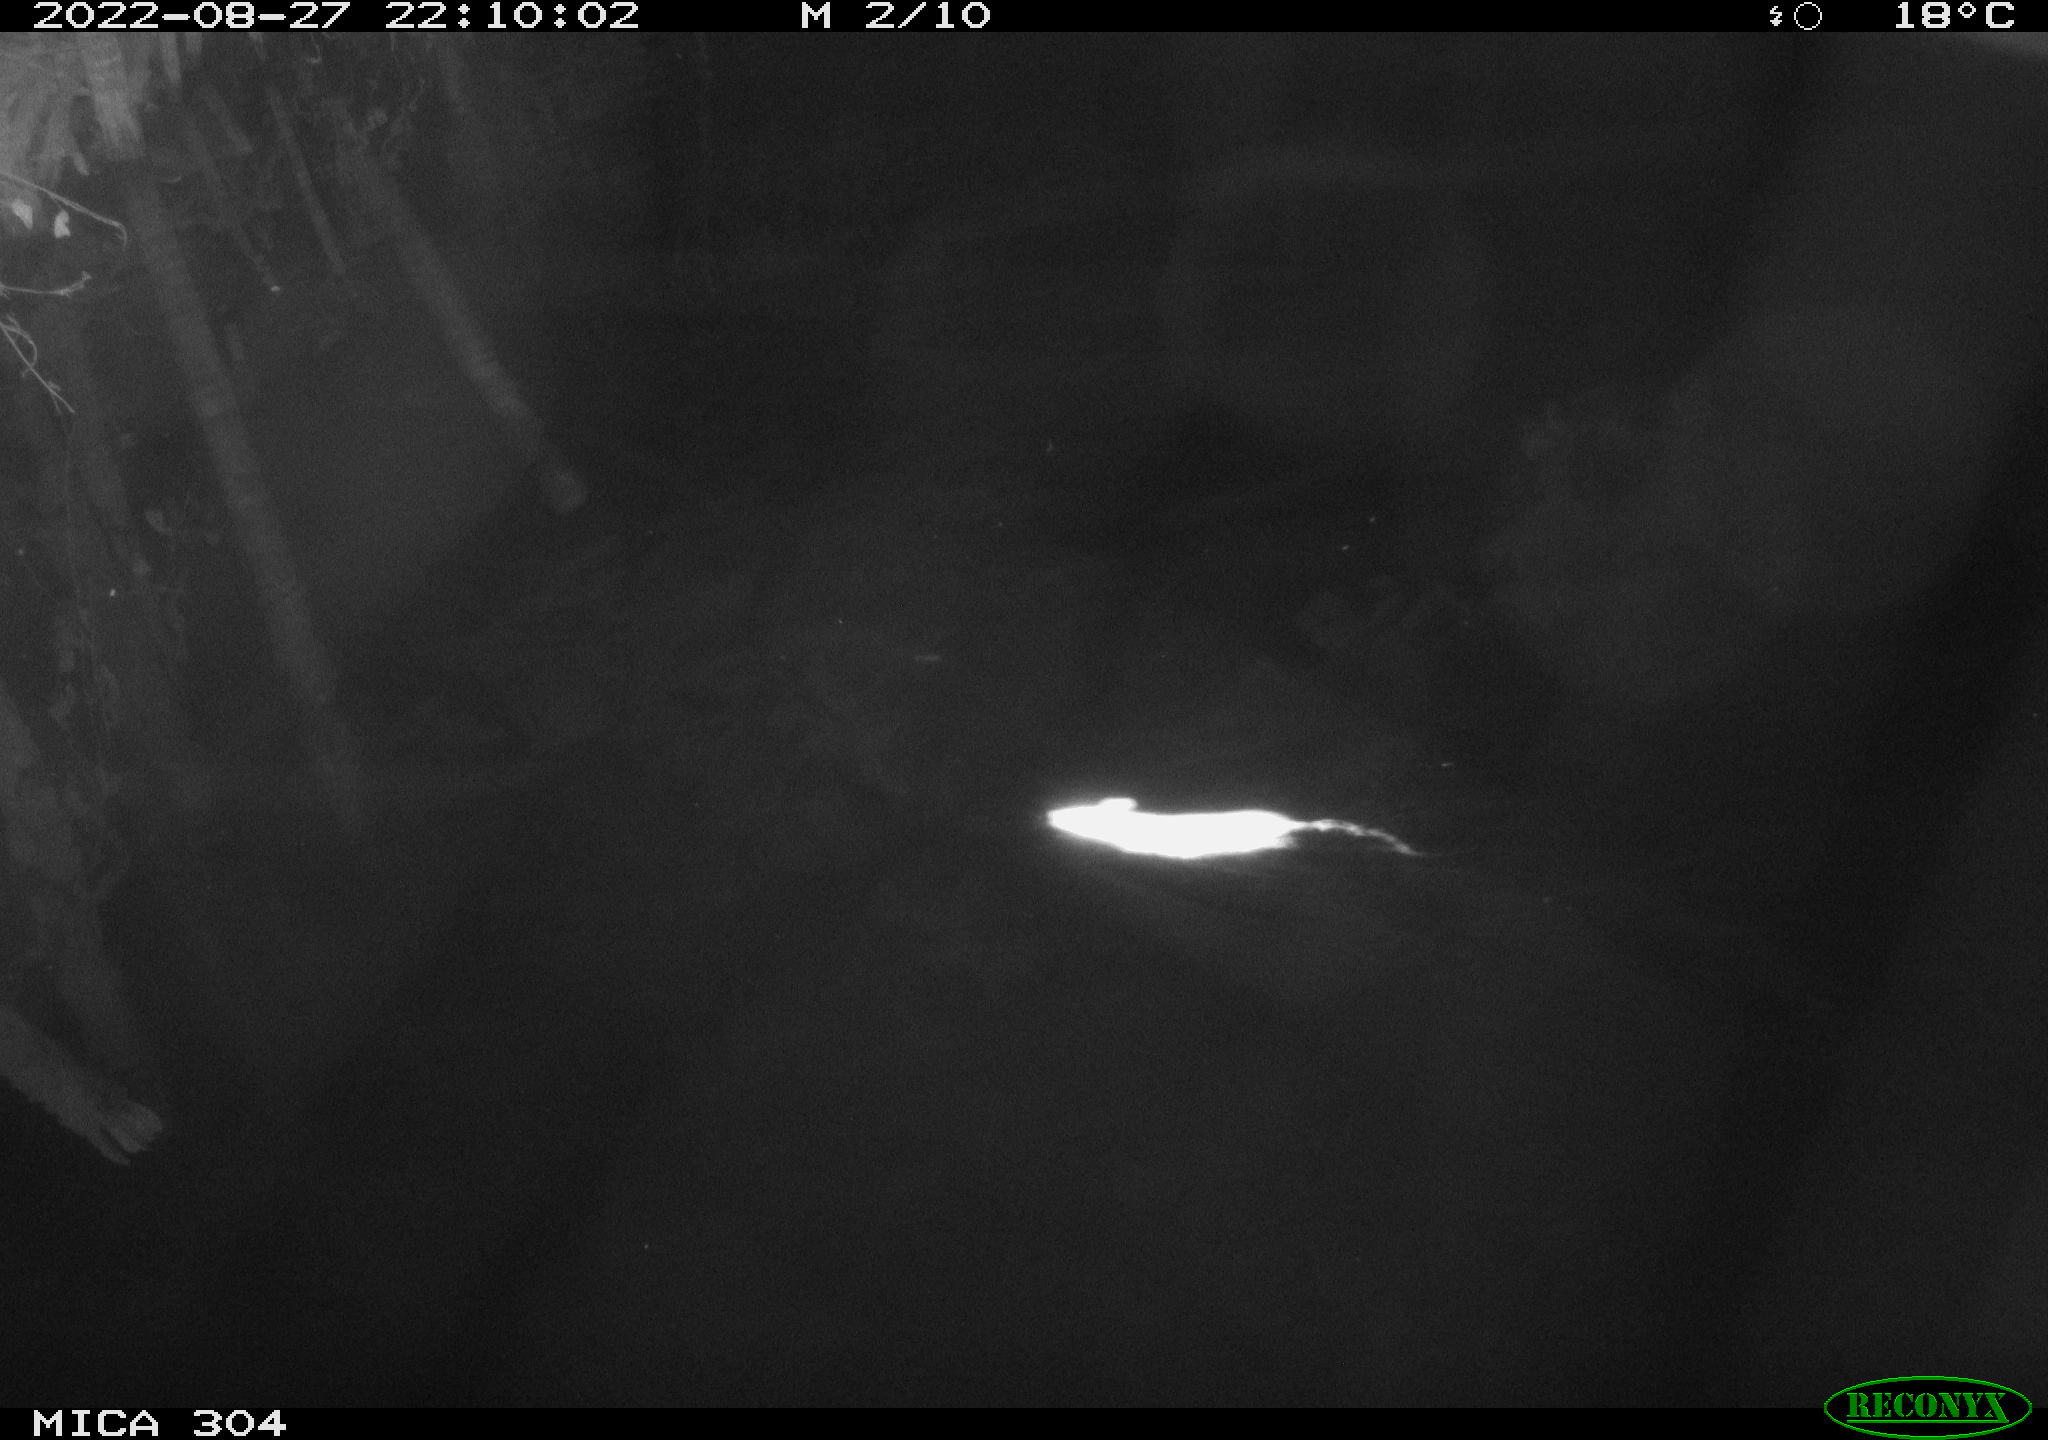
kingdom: Animalia
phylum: Chordata
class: Mammalia
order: Rodentia
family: Muridae
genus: Rattus
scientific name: Rattus norvegicus
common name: Brown rat
